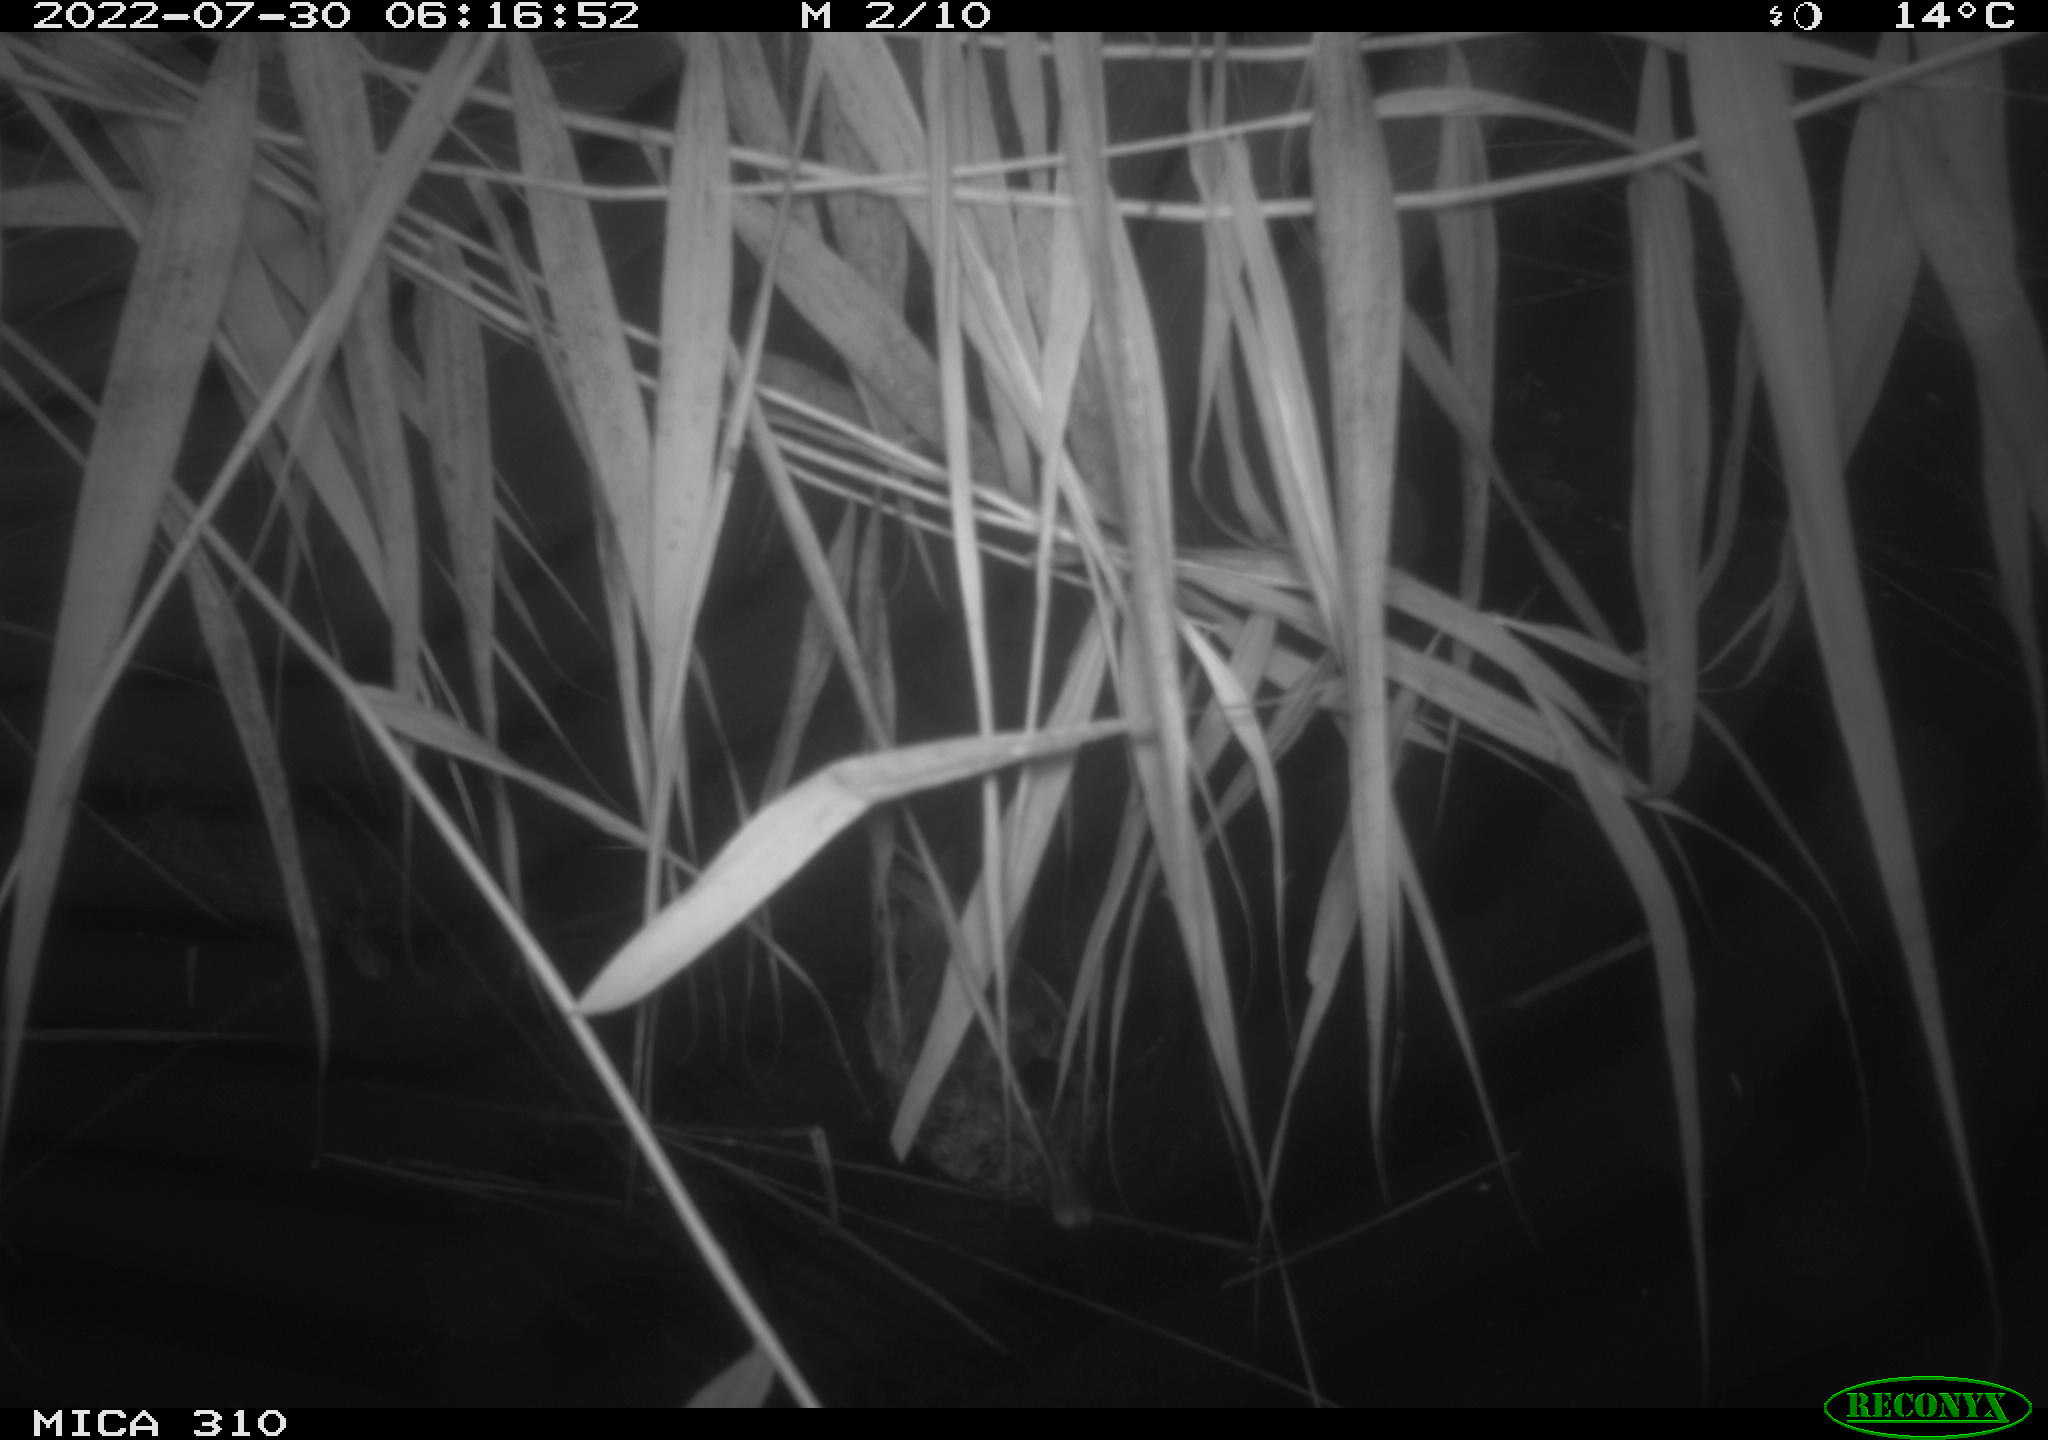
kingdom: Animalia
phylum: Chordata
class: Aves
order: Anseriformes
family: Anatidae
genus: Anas
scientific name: Anas platyrhynchos
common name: Mallard
